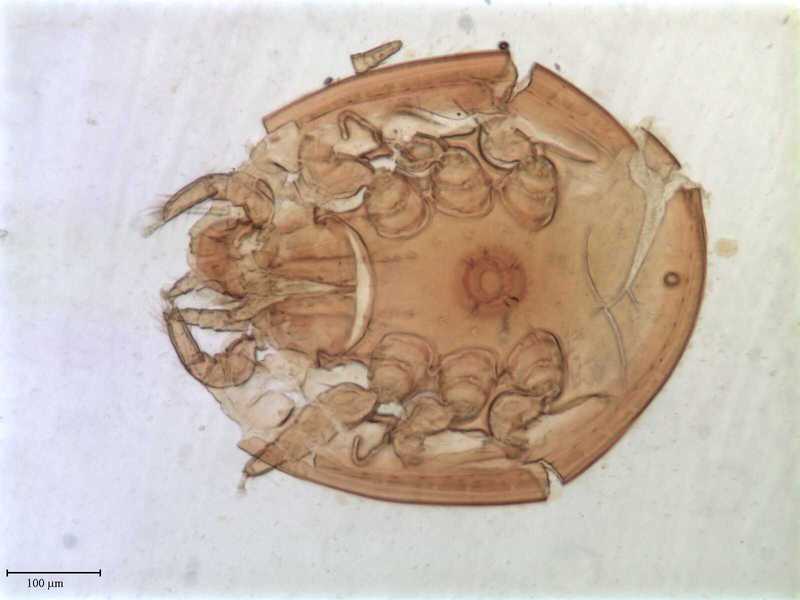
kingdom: Animalia
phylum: Arthropoda
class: Arachnida
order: Mesostigmata
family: Oplitidae
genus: Oplitis
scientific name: Oplitis philoctena
